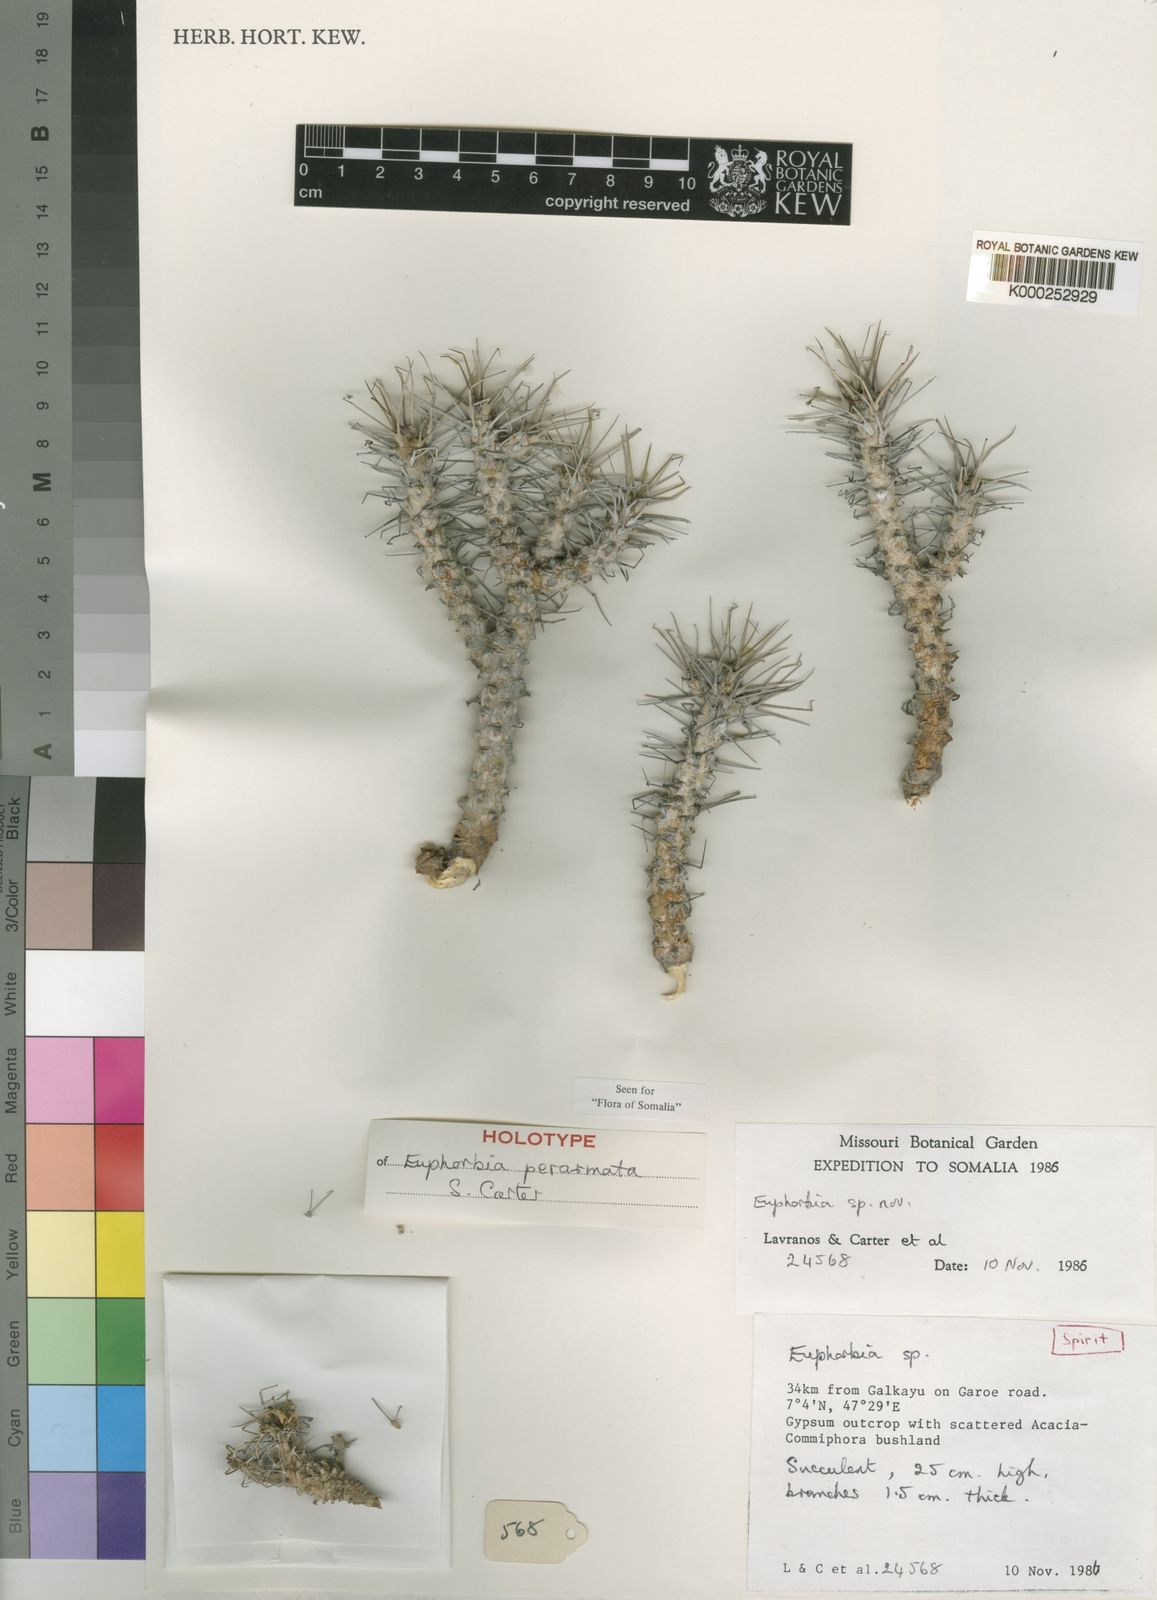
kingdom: Plantae
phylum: Tracheophyta
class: Magnoliopsida
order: Malpighiales
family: Euphorbiaceae
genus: Euphorbia
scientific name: Euphorbia perarmata
